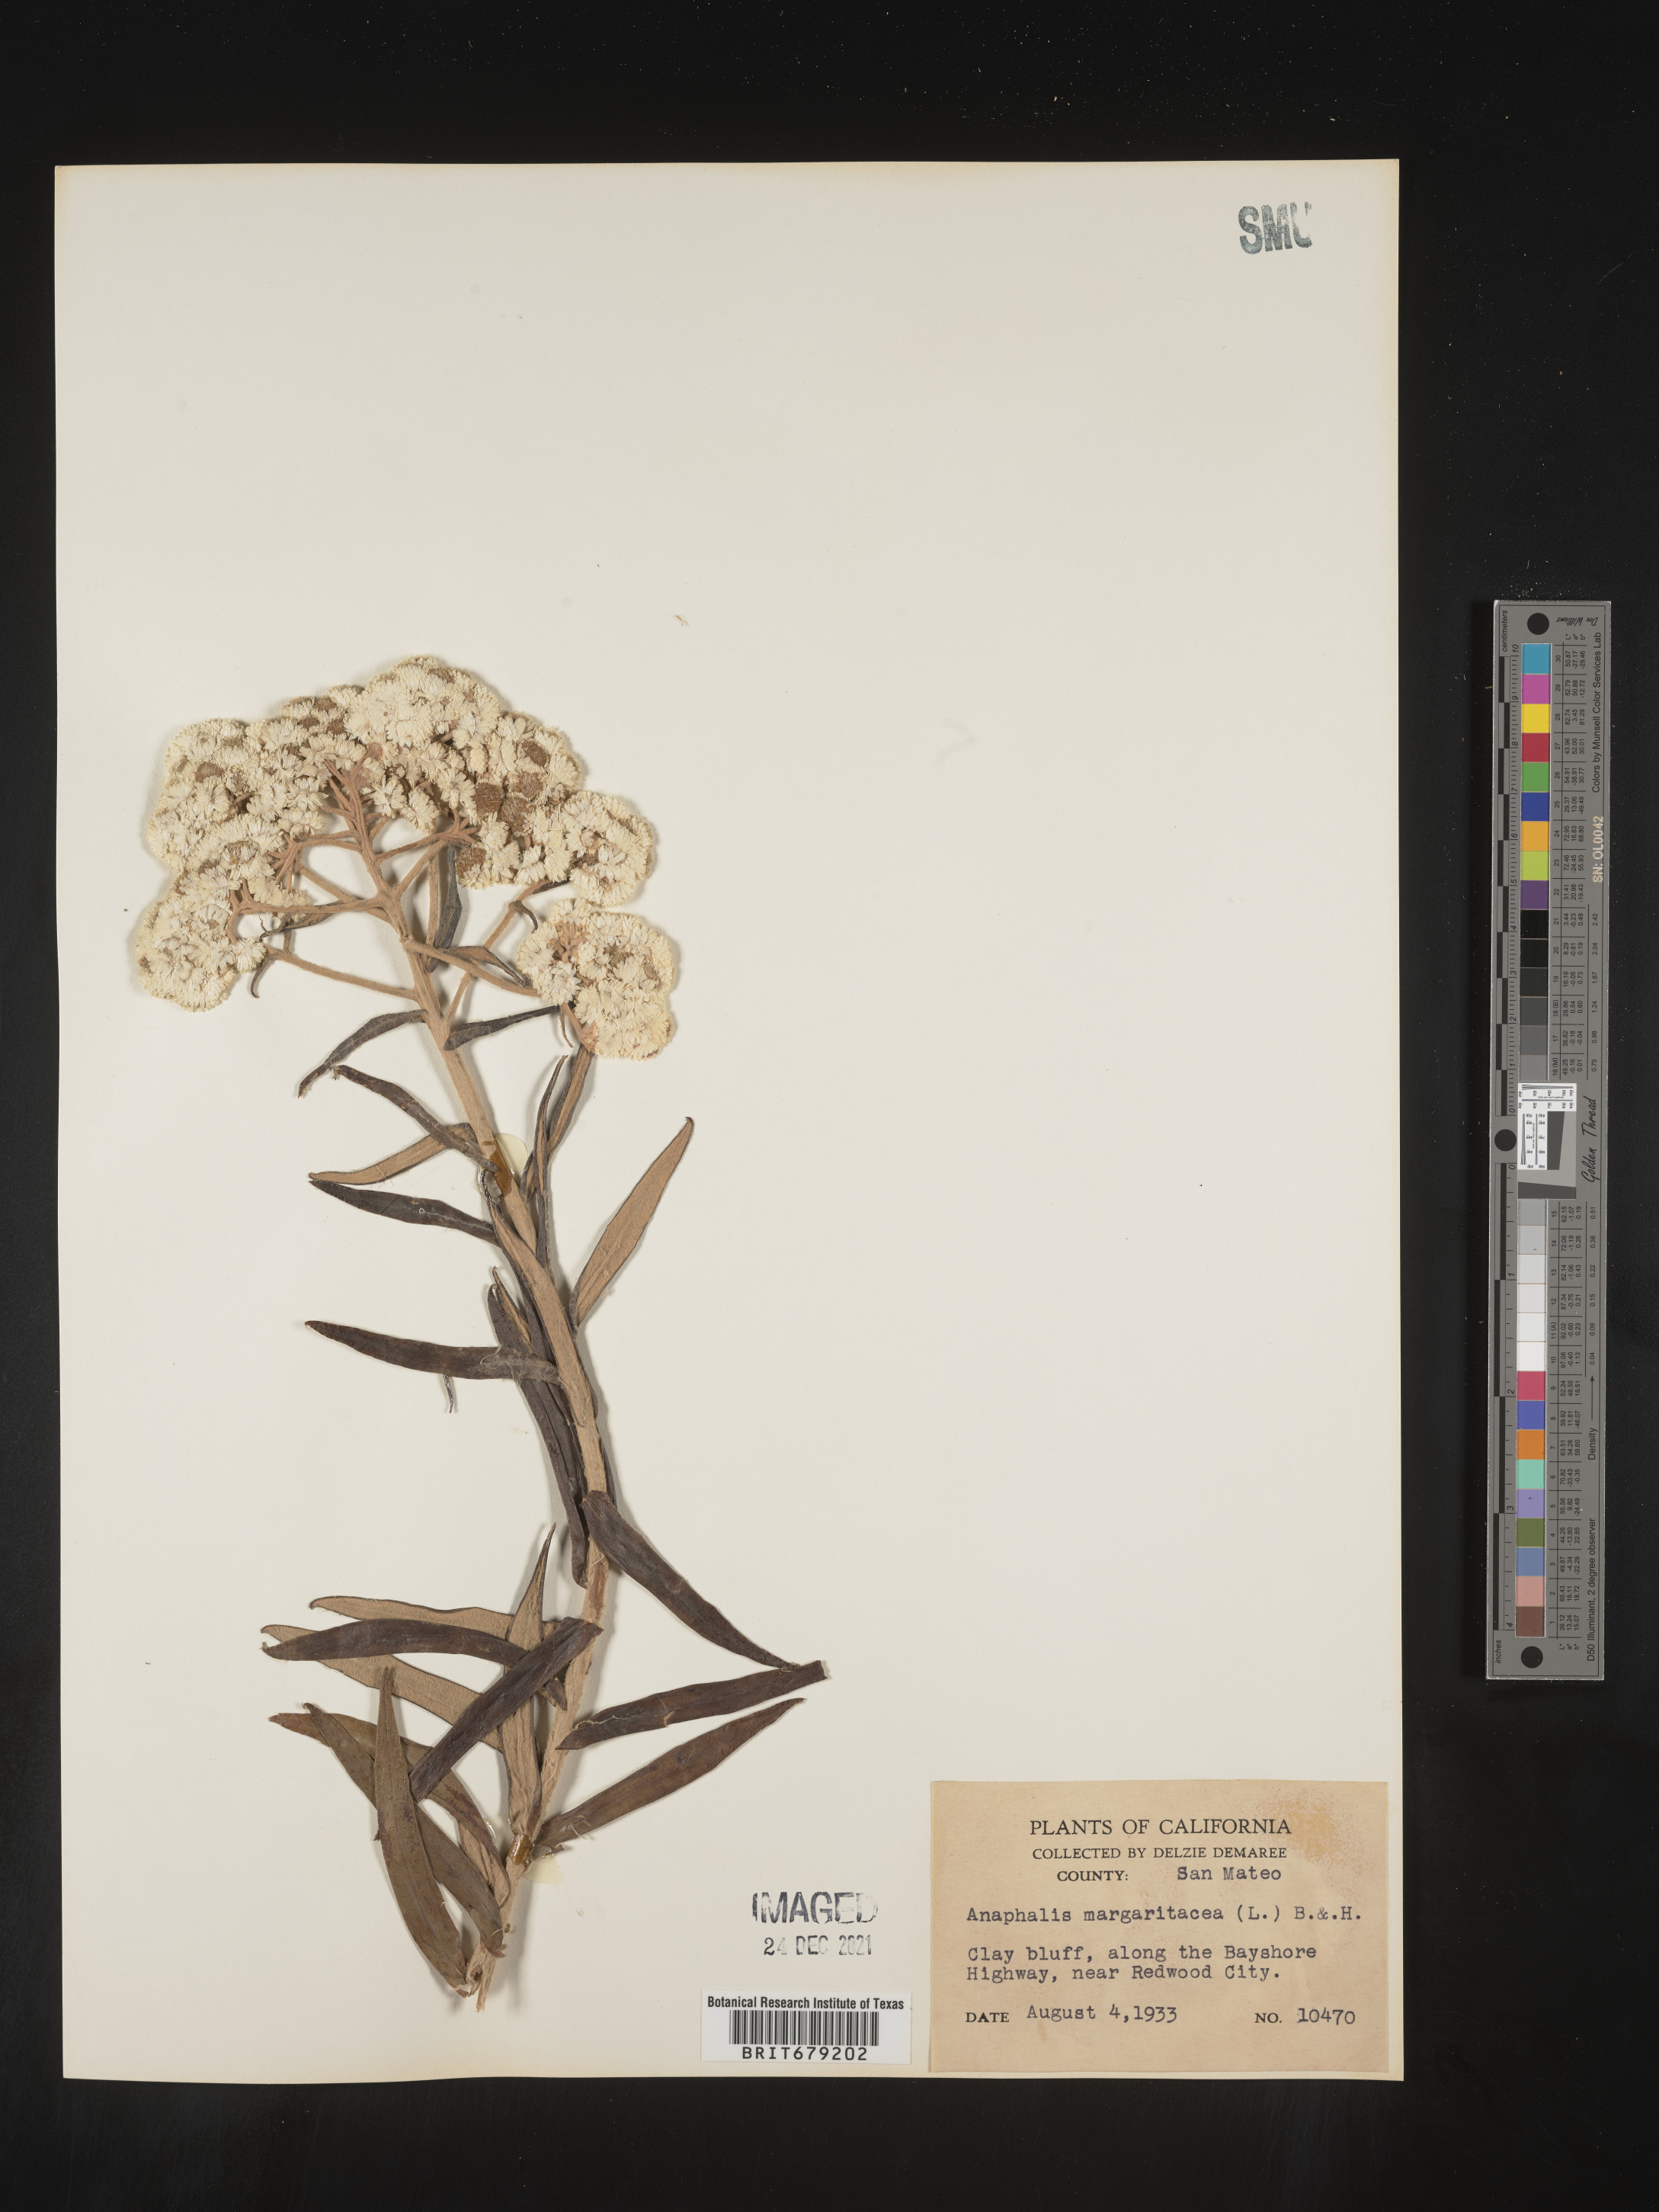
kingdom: Plantae
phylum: Tracheophyta
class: Magnoliopsida
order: Asterales
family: Asteraceae
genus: Anaphalis
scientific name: Anaphalis margaritacea
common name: Pearly everlasting
